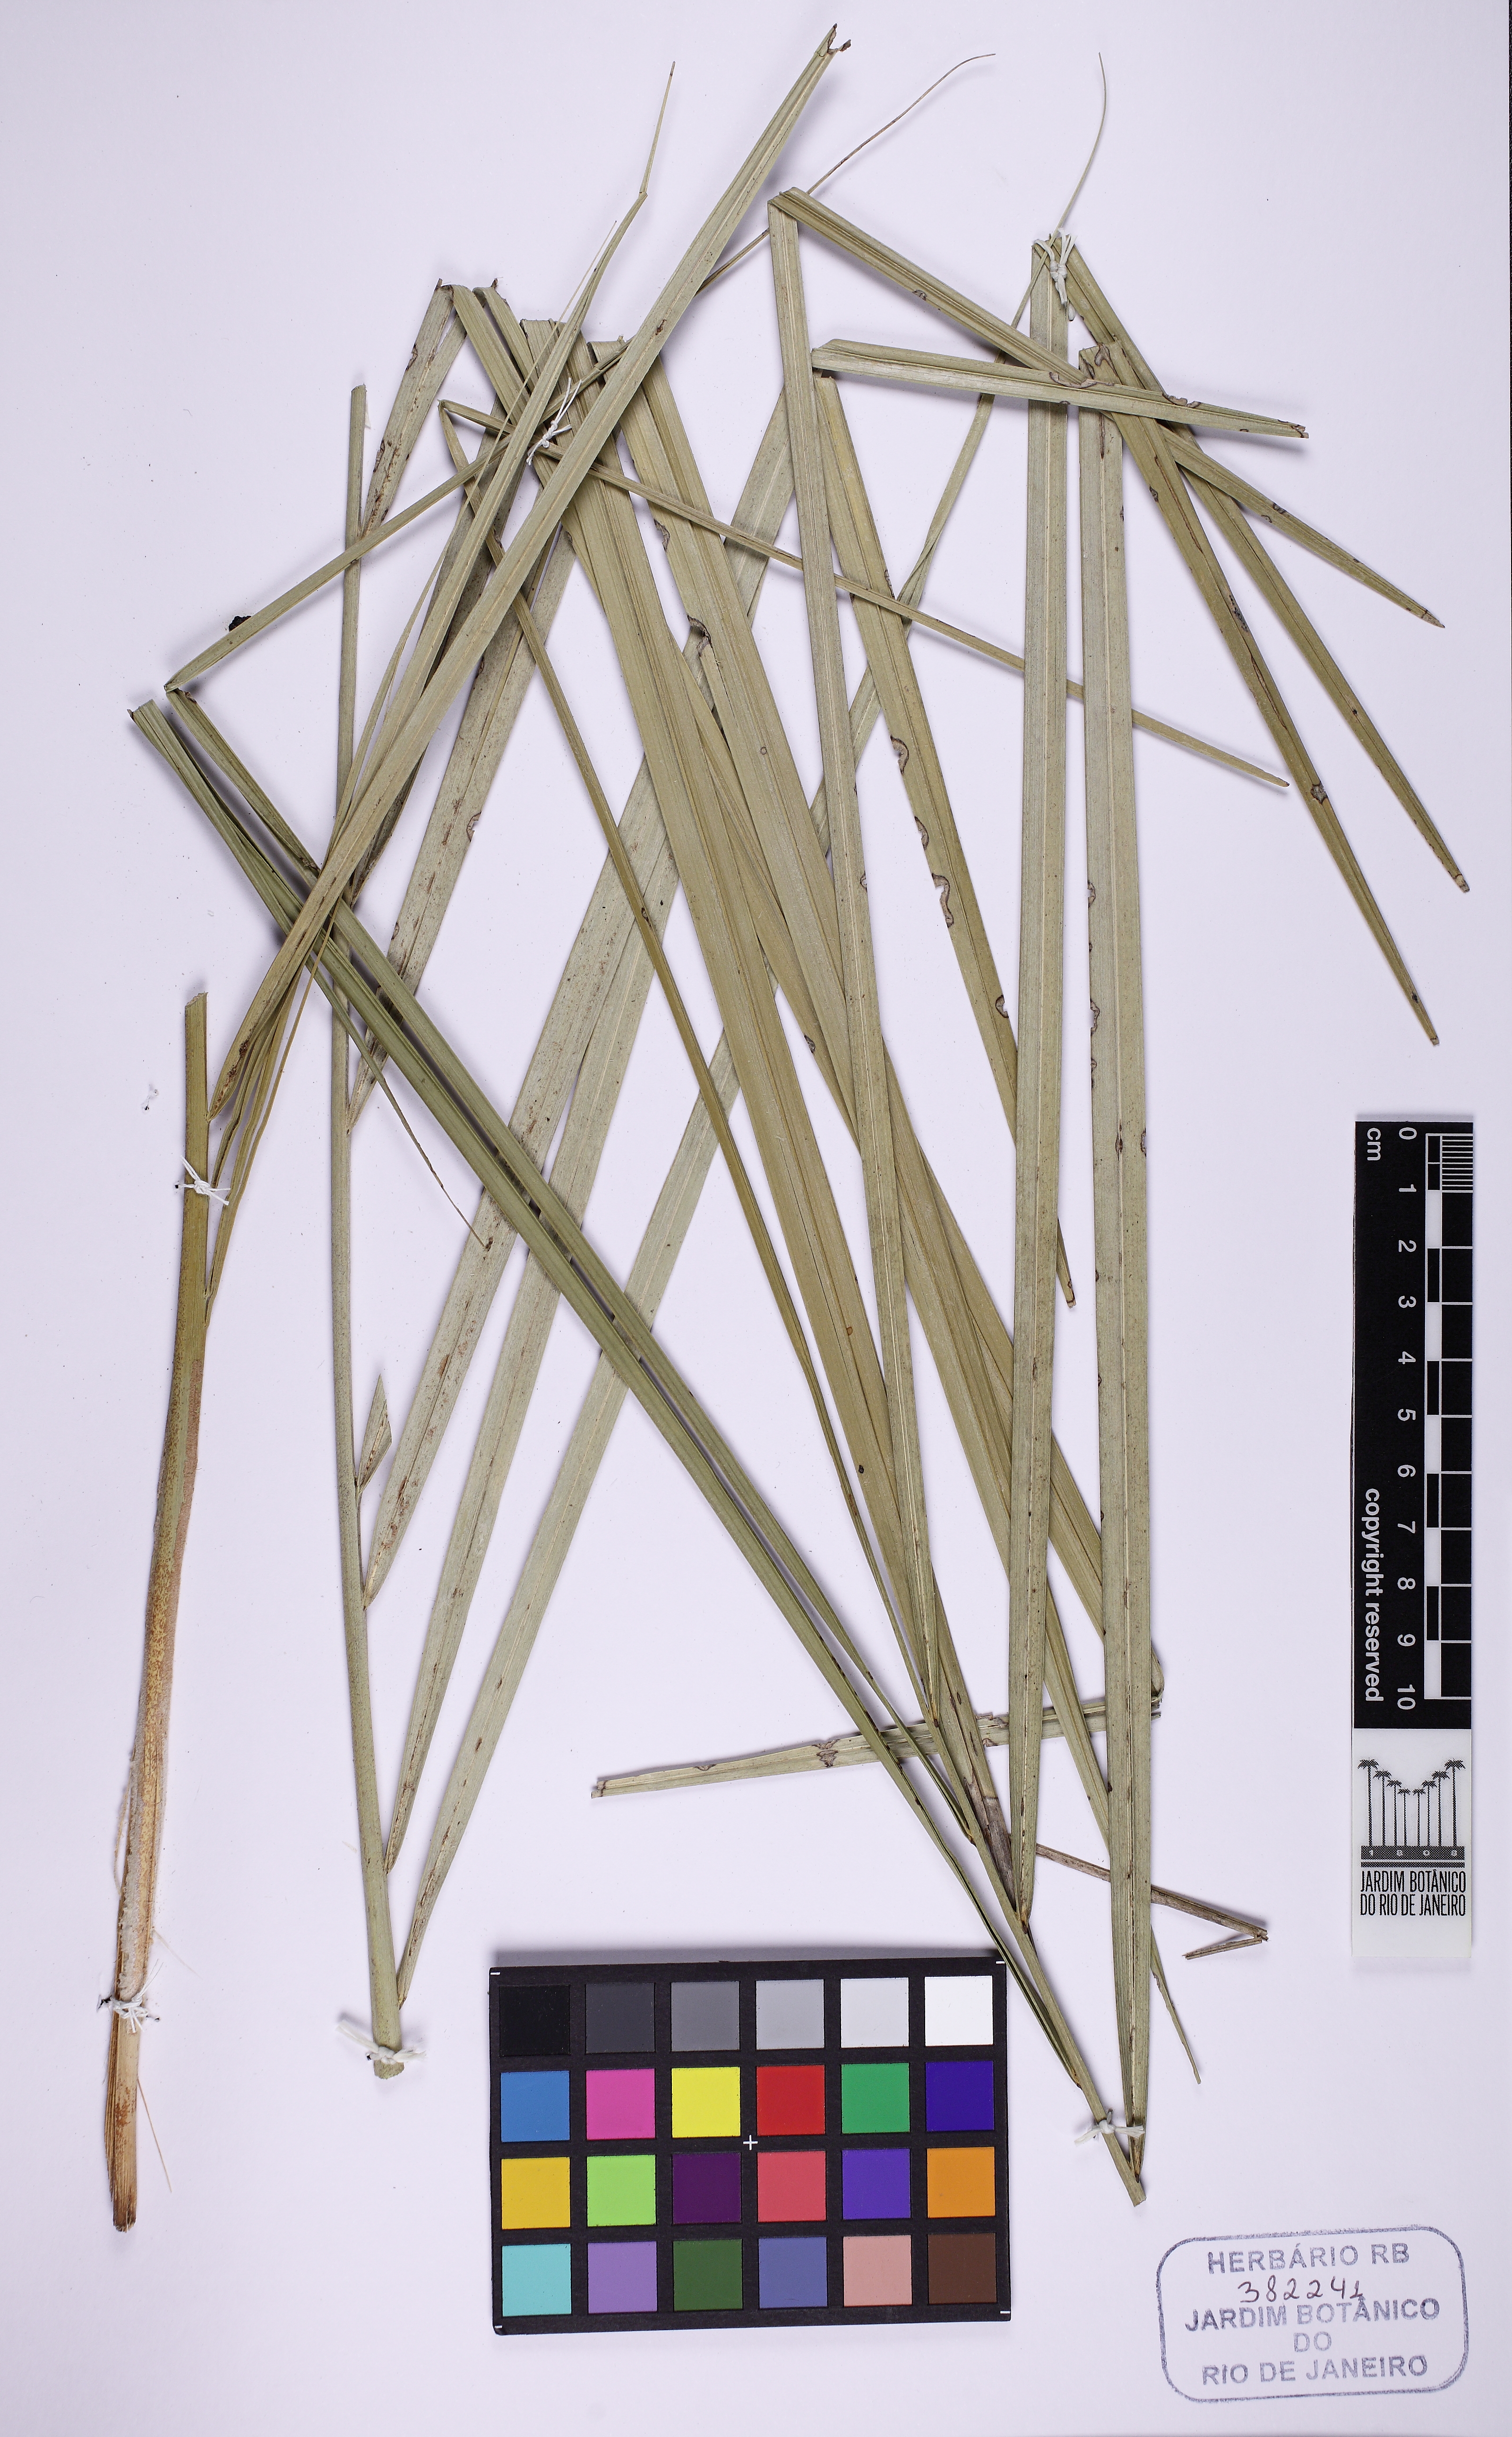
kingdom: Plantae
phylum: Tracheophyta
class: Liliopsida
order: Arecales
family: Arecaceae
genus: Syagrus
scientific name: Syagrus glazioviana
